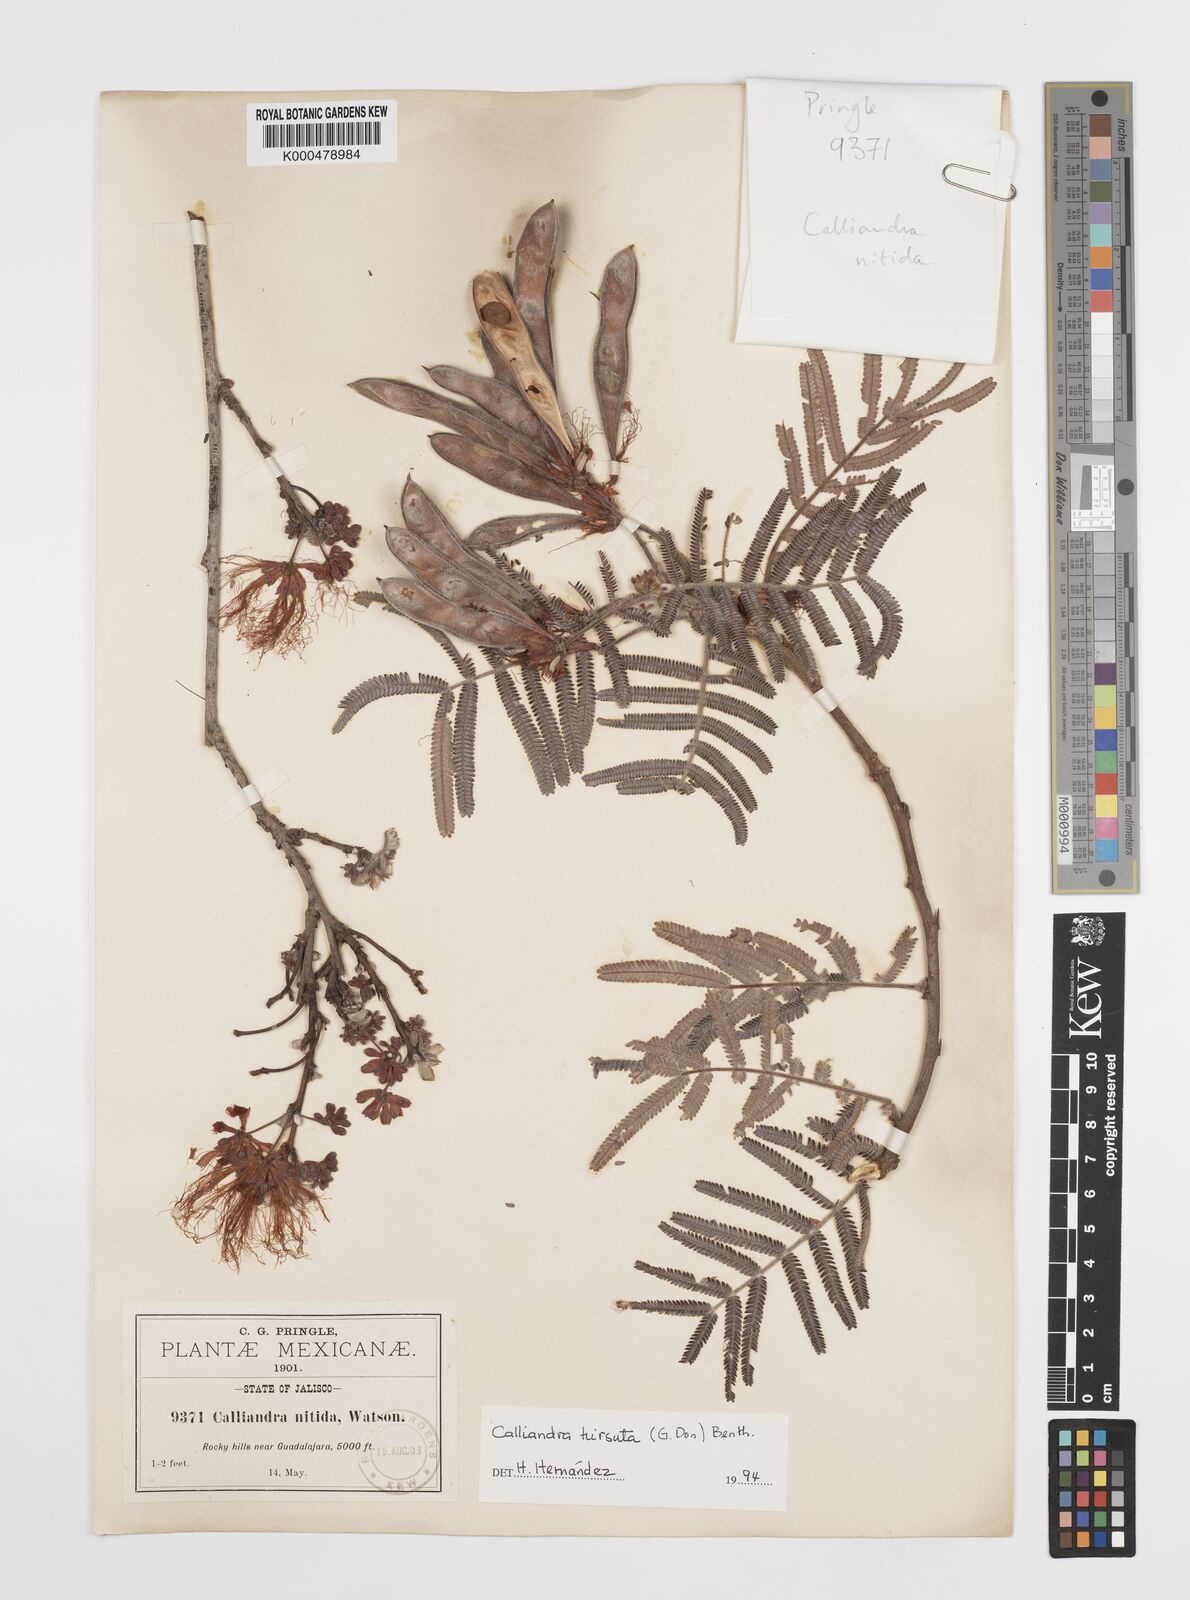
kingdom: Plantae
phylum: Tracheophyta
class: Magnoliopsida
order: Fabales
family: Fabaceae
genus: Calliandra
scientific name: Calliandra hirsuta
